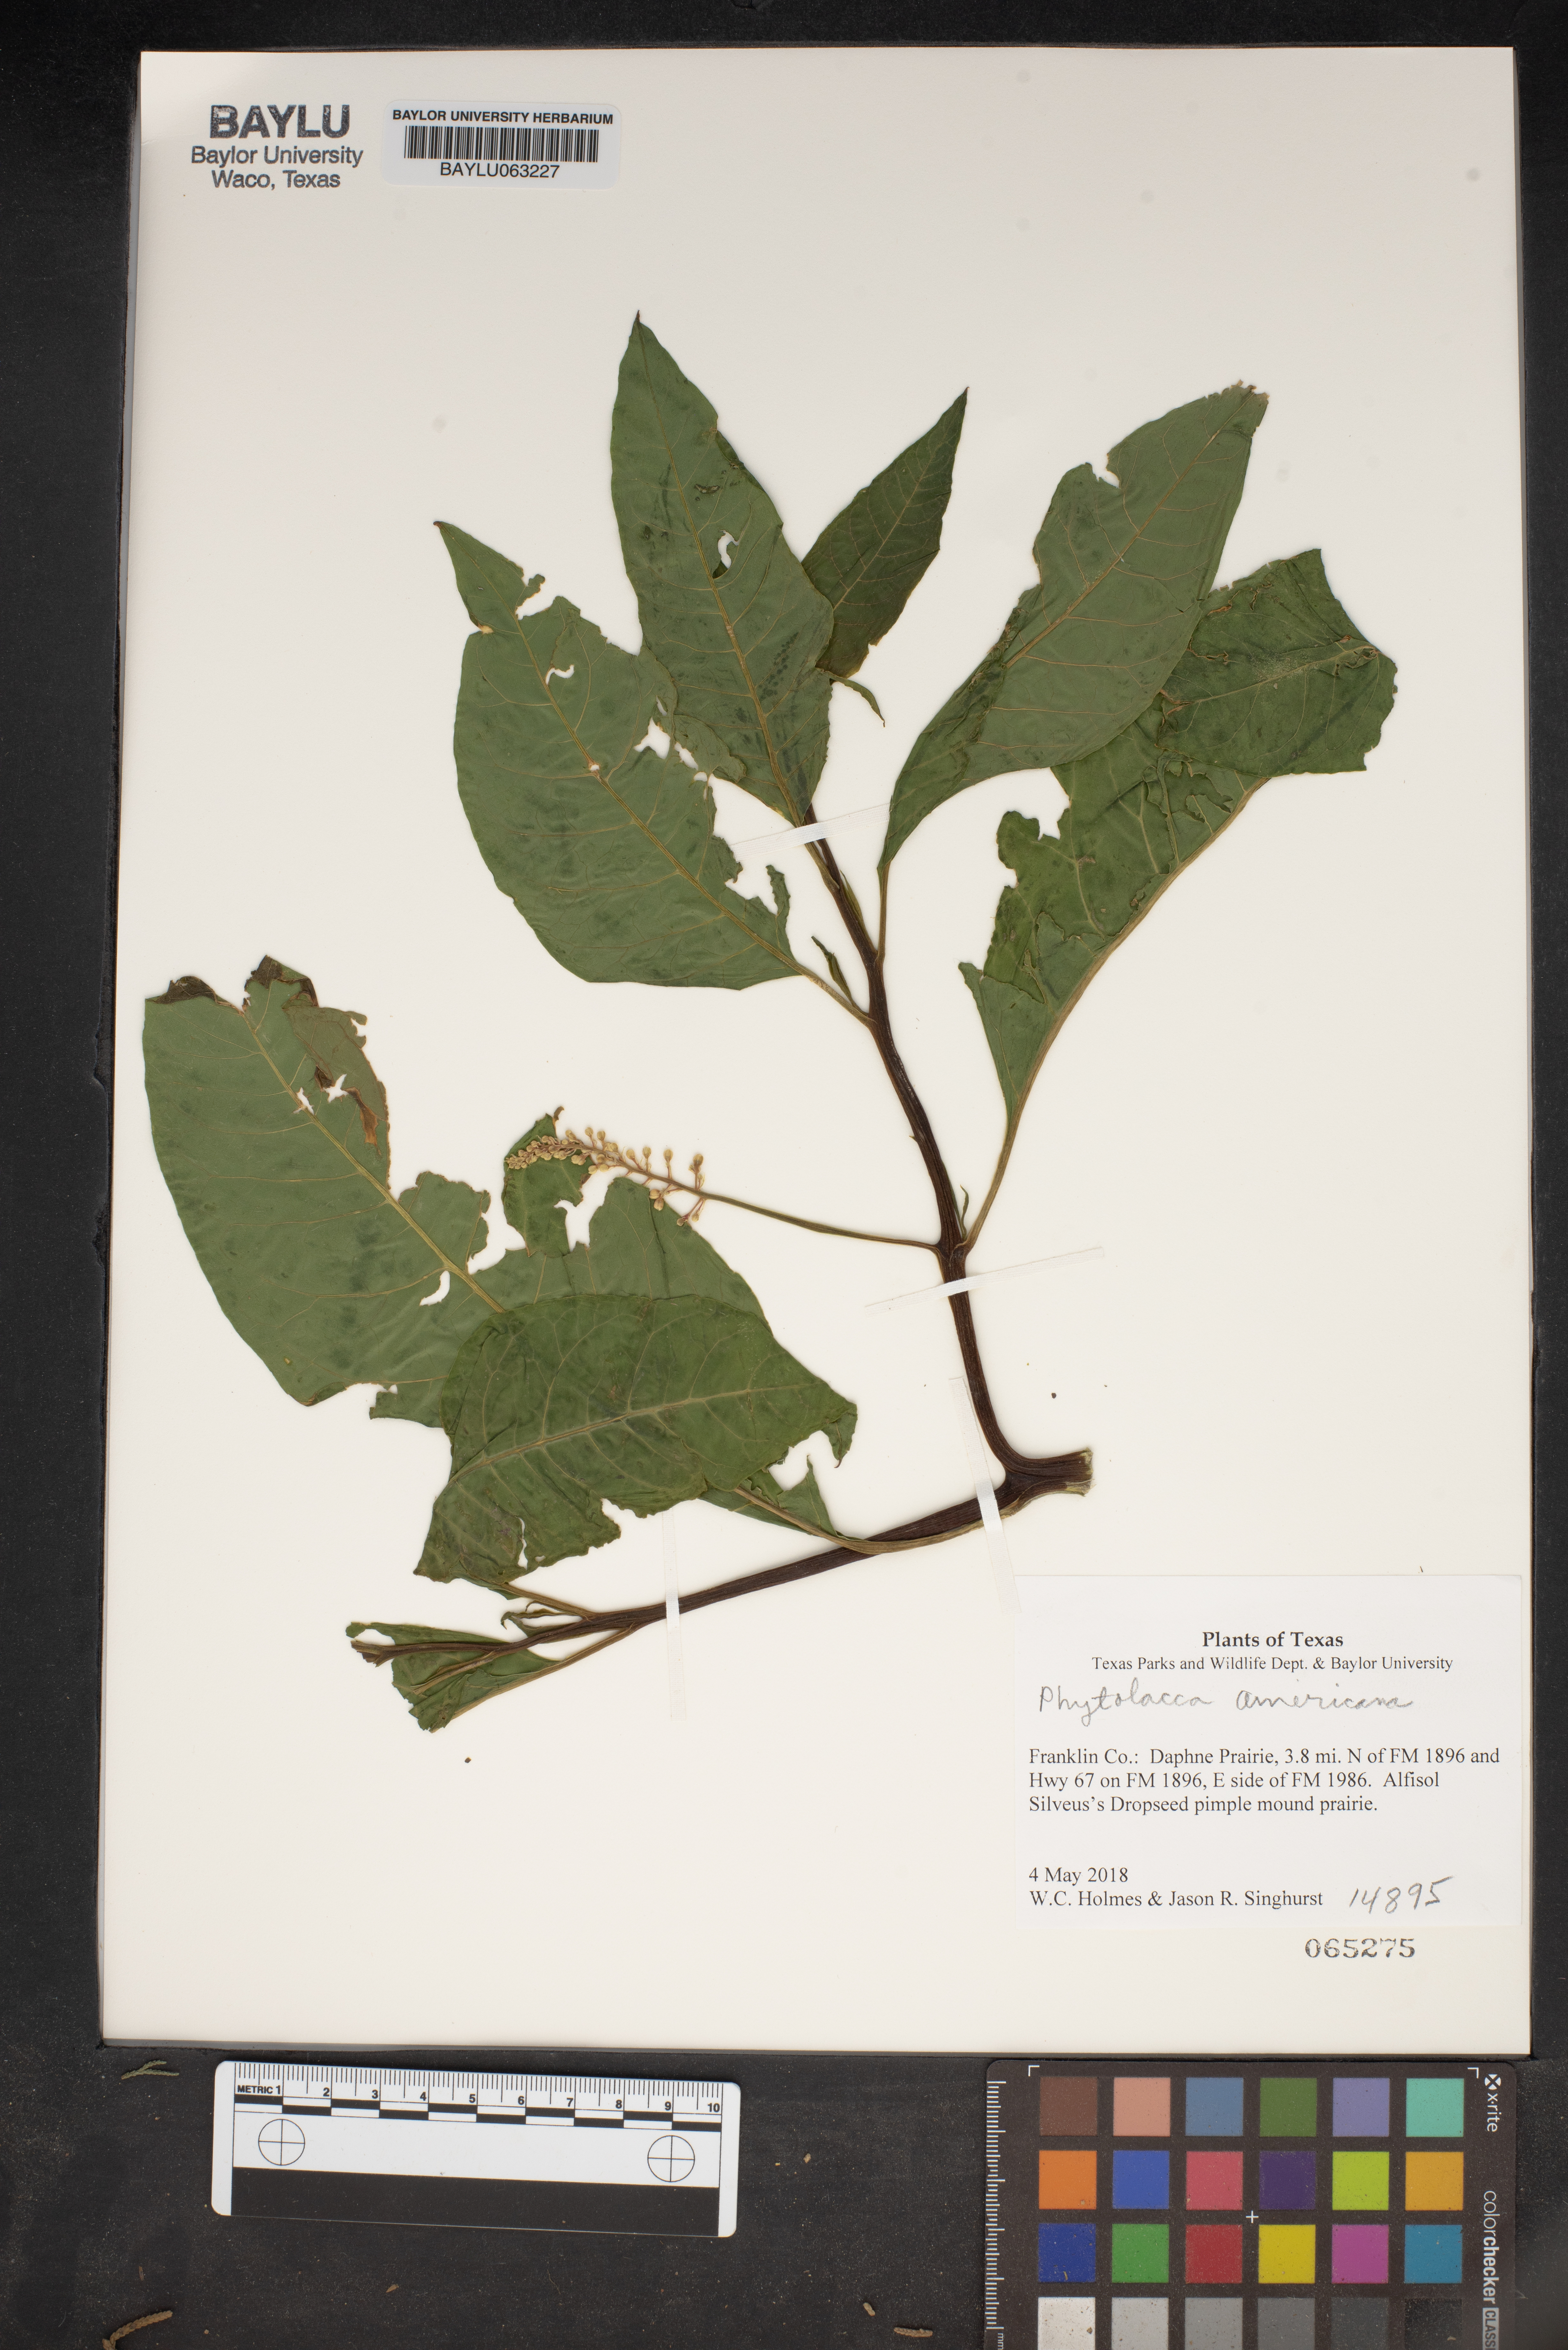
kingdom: Plantae
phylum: Tracheophyta
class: Magnoliopsida
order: Caryophyllales
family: Phytolaccaceae
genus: Phytolacca
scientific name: Phytolacca americana
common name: American pokeweed
